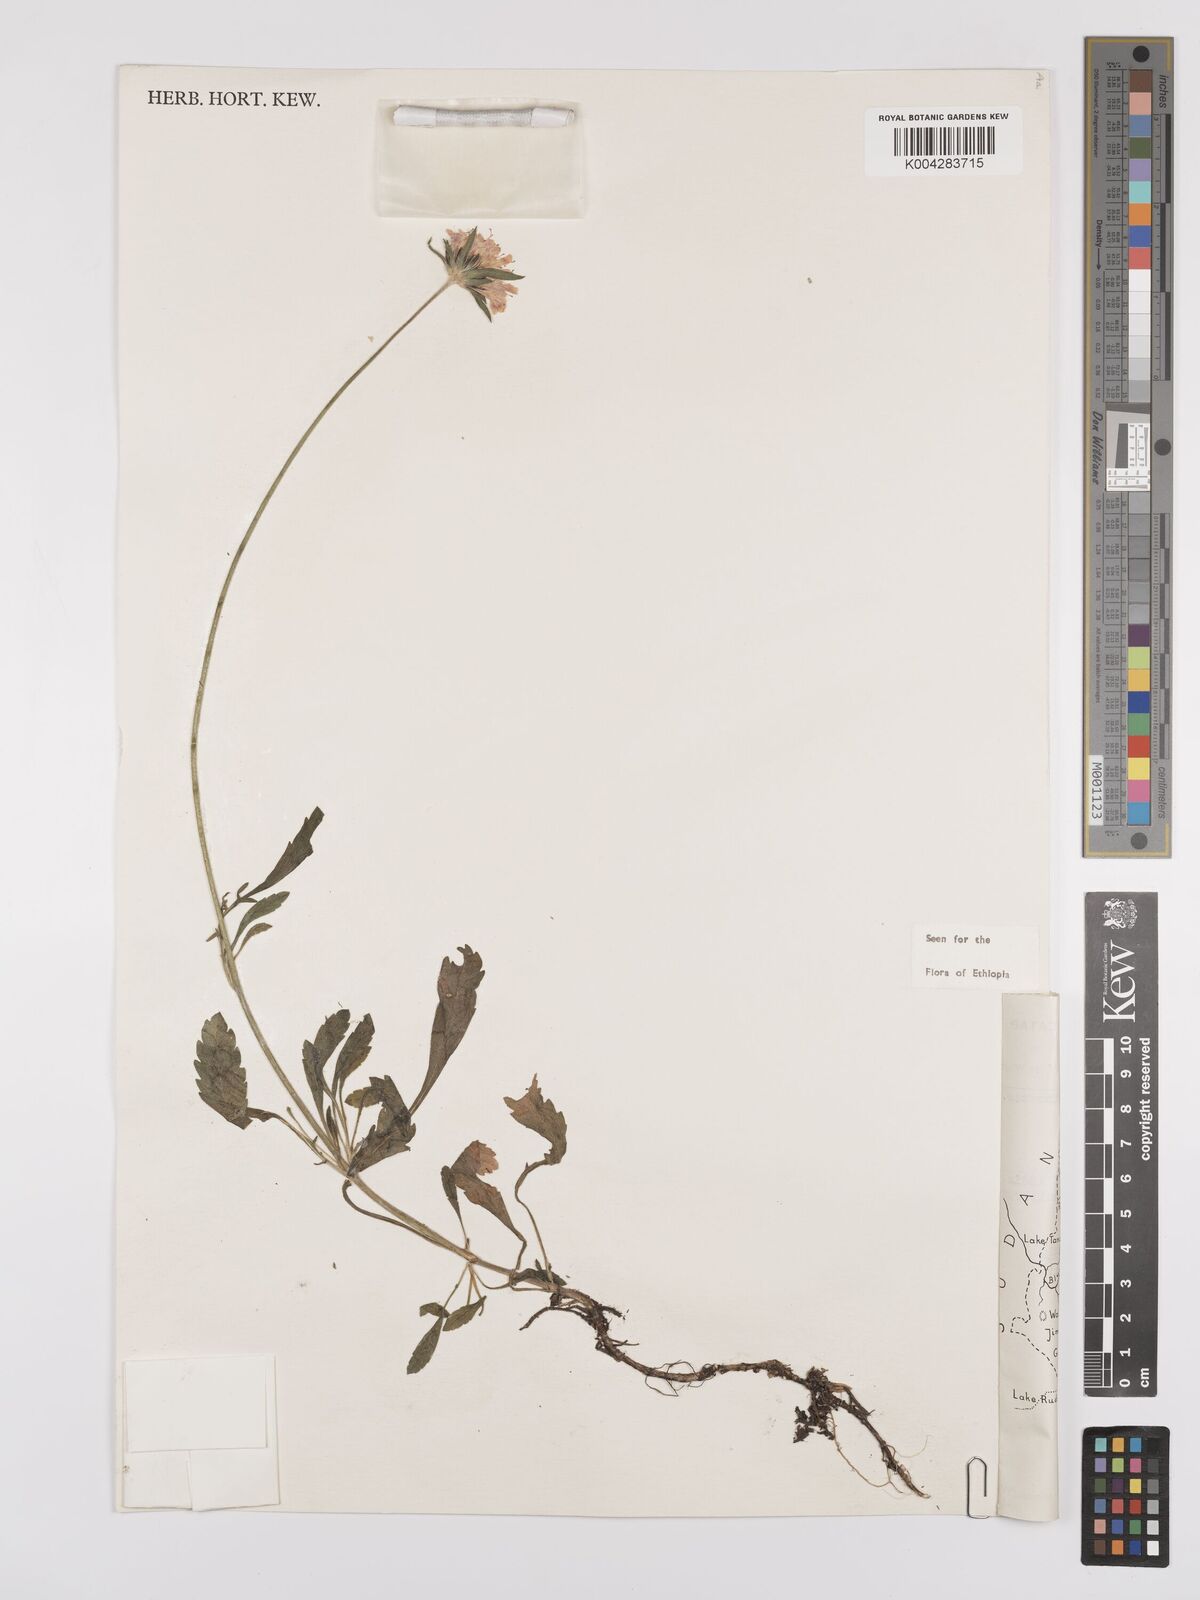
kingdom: Plantae
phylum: Tracheophyta
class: Magnoliopsida
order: Dipsacales
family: Caprifoliaceae
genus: Scabiosa
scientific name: Scabiosa columbaria
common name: Small scabious
